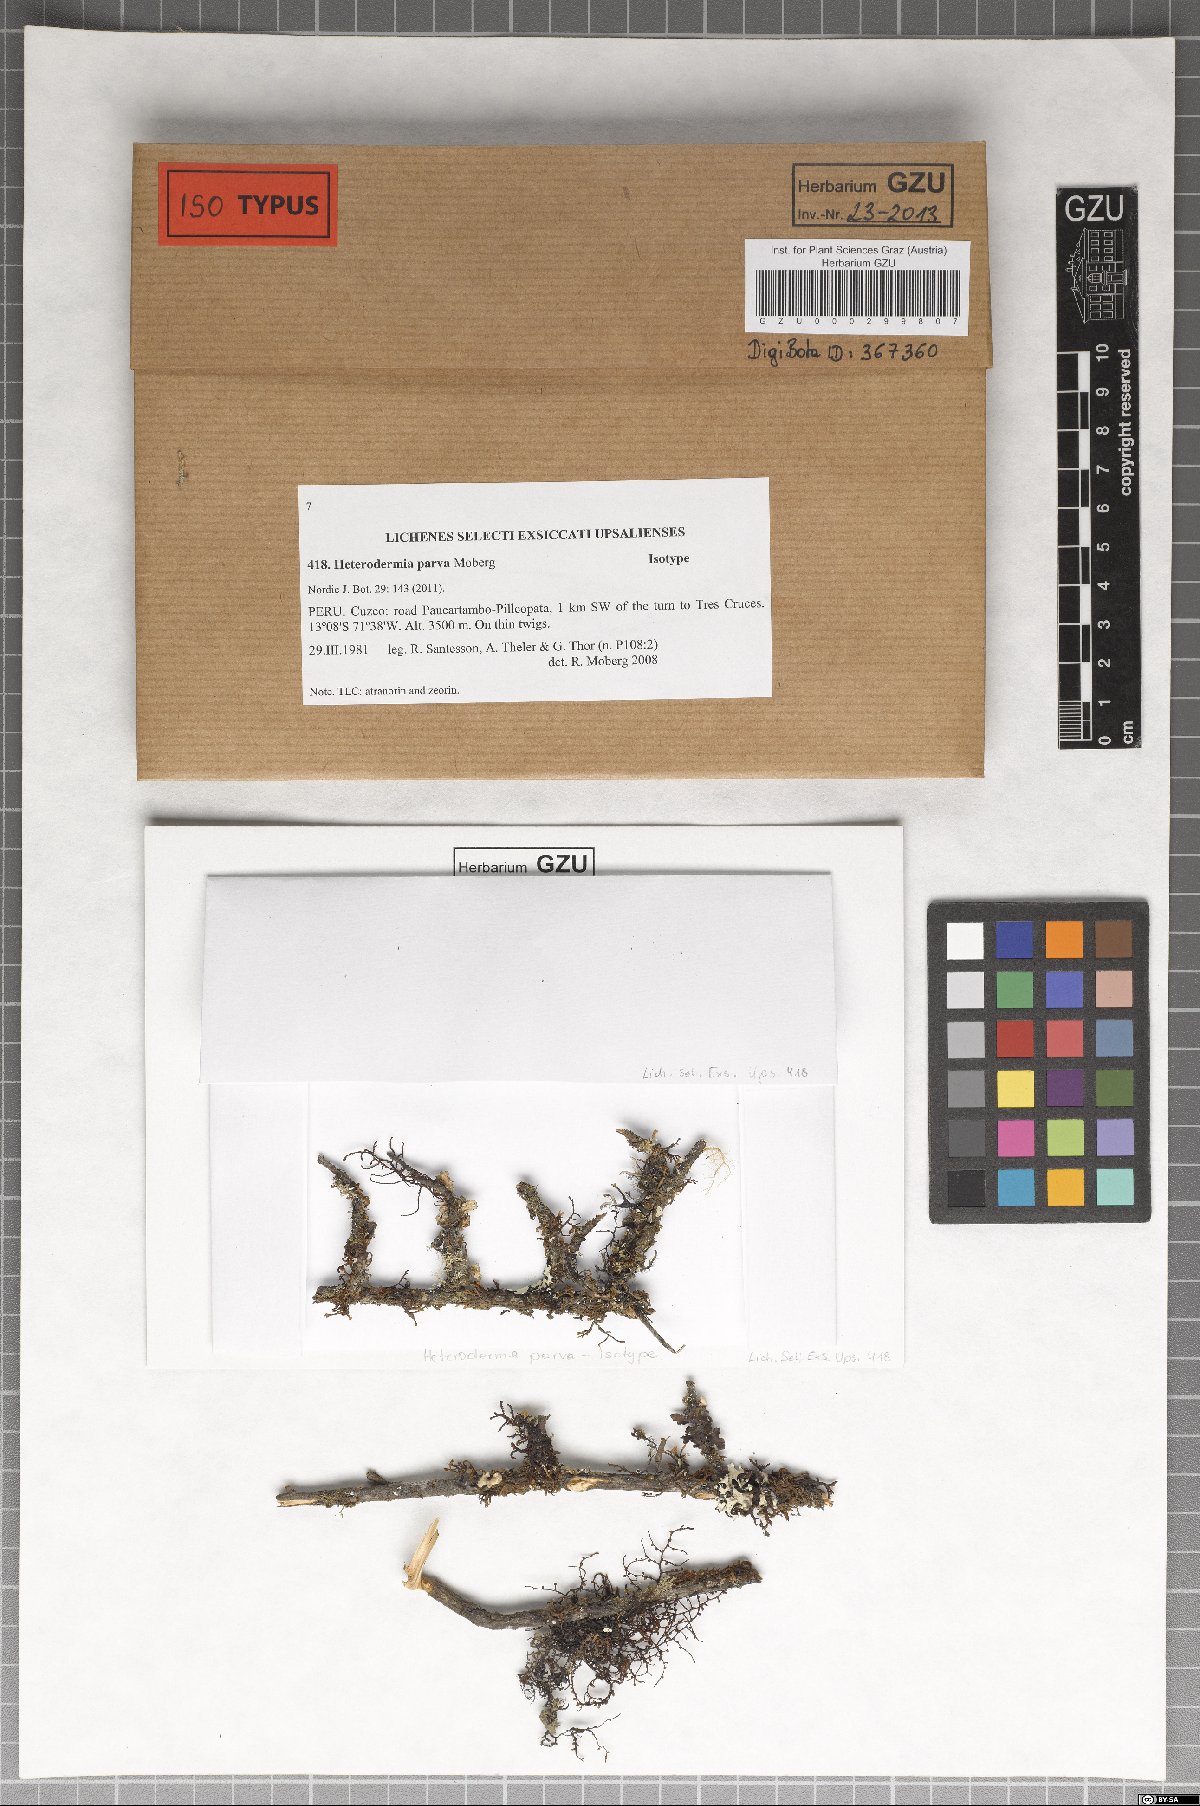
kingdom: Fungi
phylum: Ascomycota
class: Lecanoromycetes
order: Caliciales
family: Physciaceae
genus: Heterodermia
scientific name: Heterodermia parva
